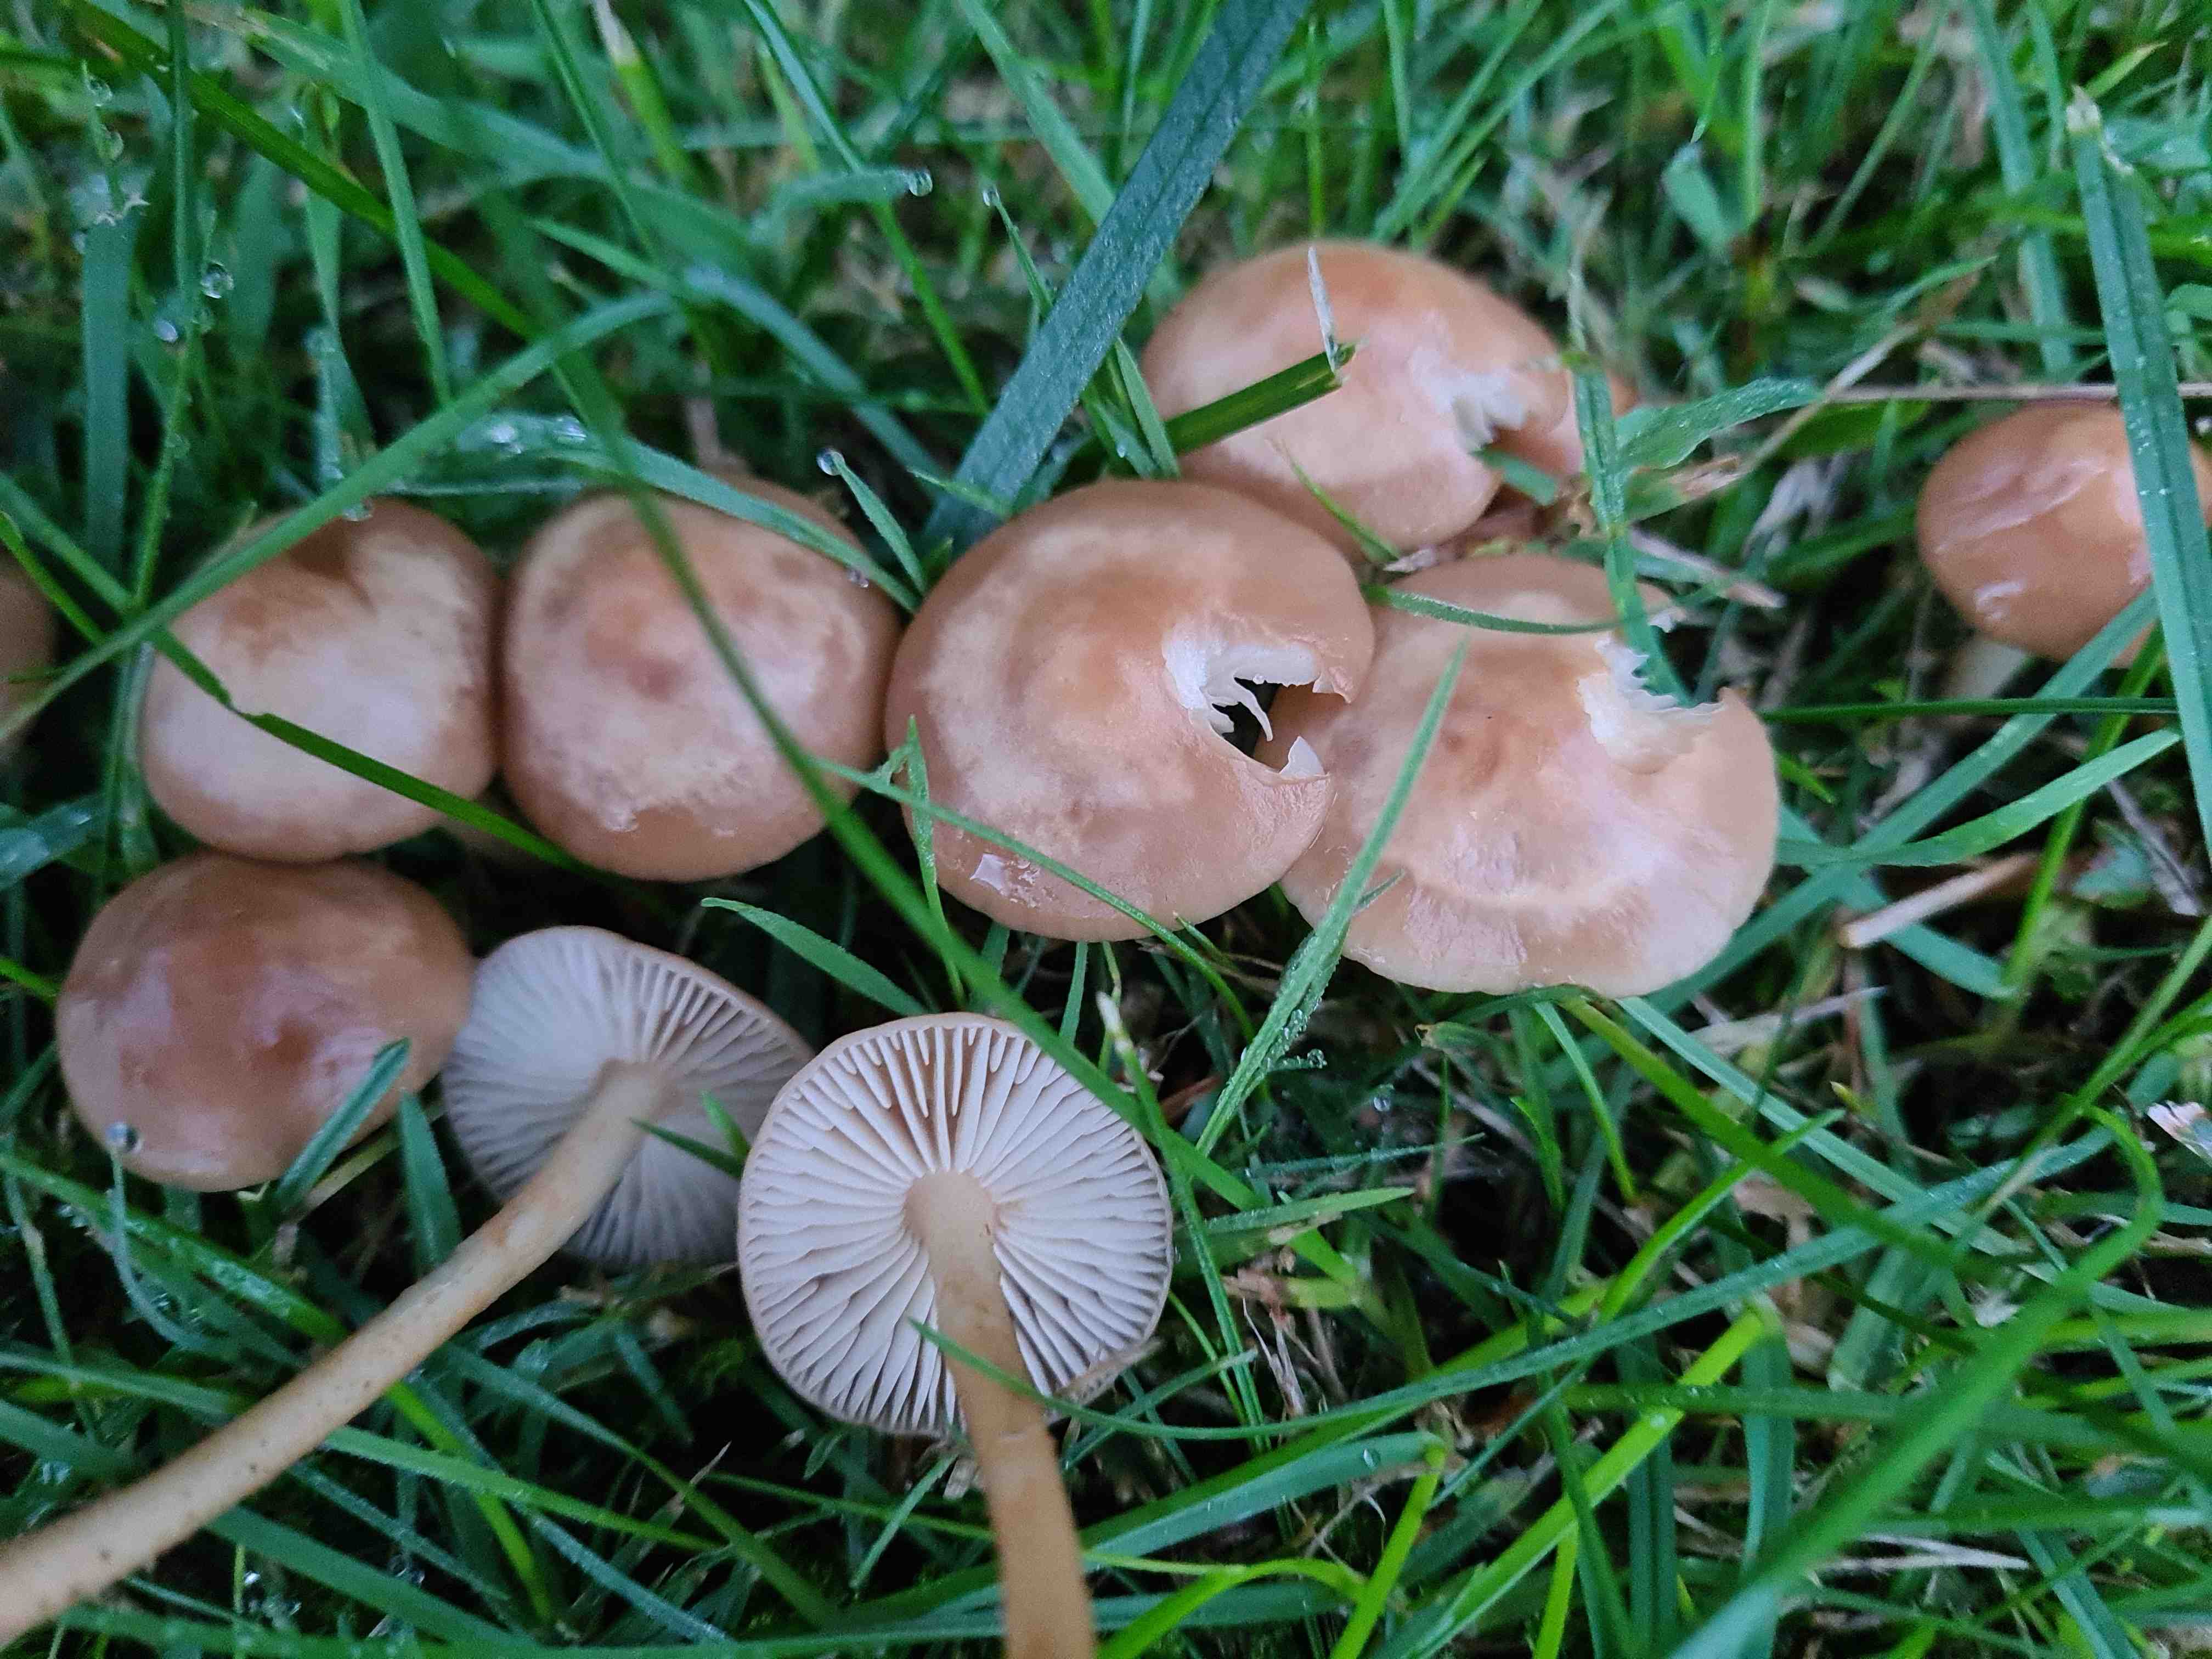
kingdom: Fungi
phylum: Basidiomycota
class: Agaricomycetes
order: Agaricales
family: Marasmiaceae
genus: Marasmius
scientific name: Marasmius oreades
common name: elledans-bruskhat
